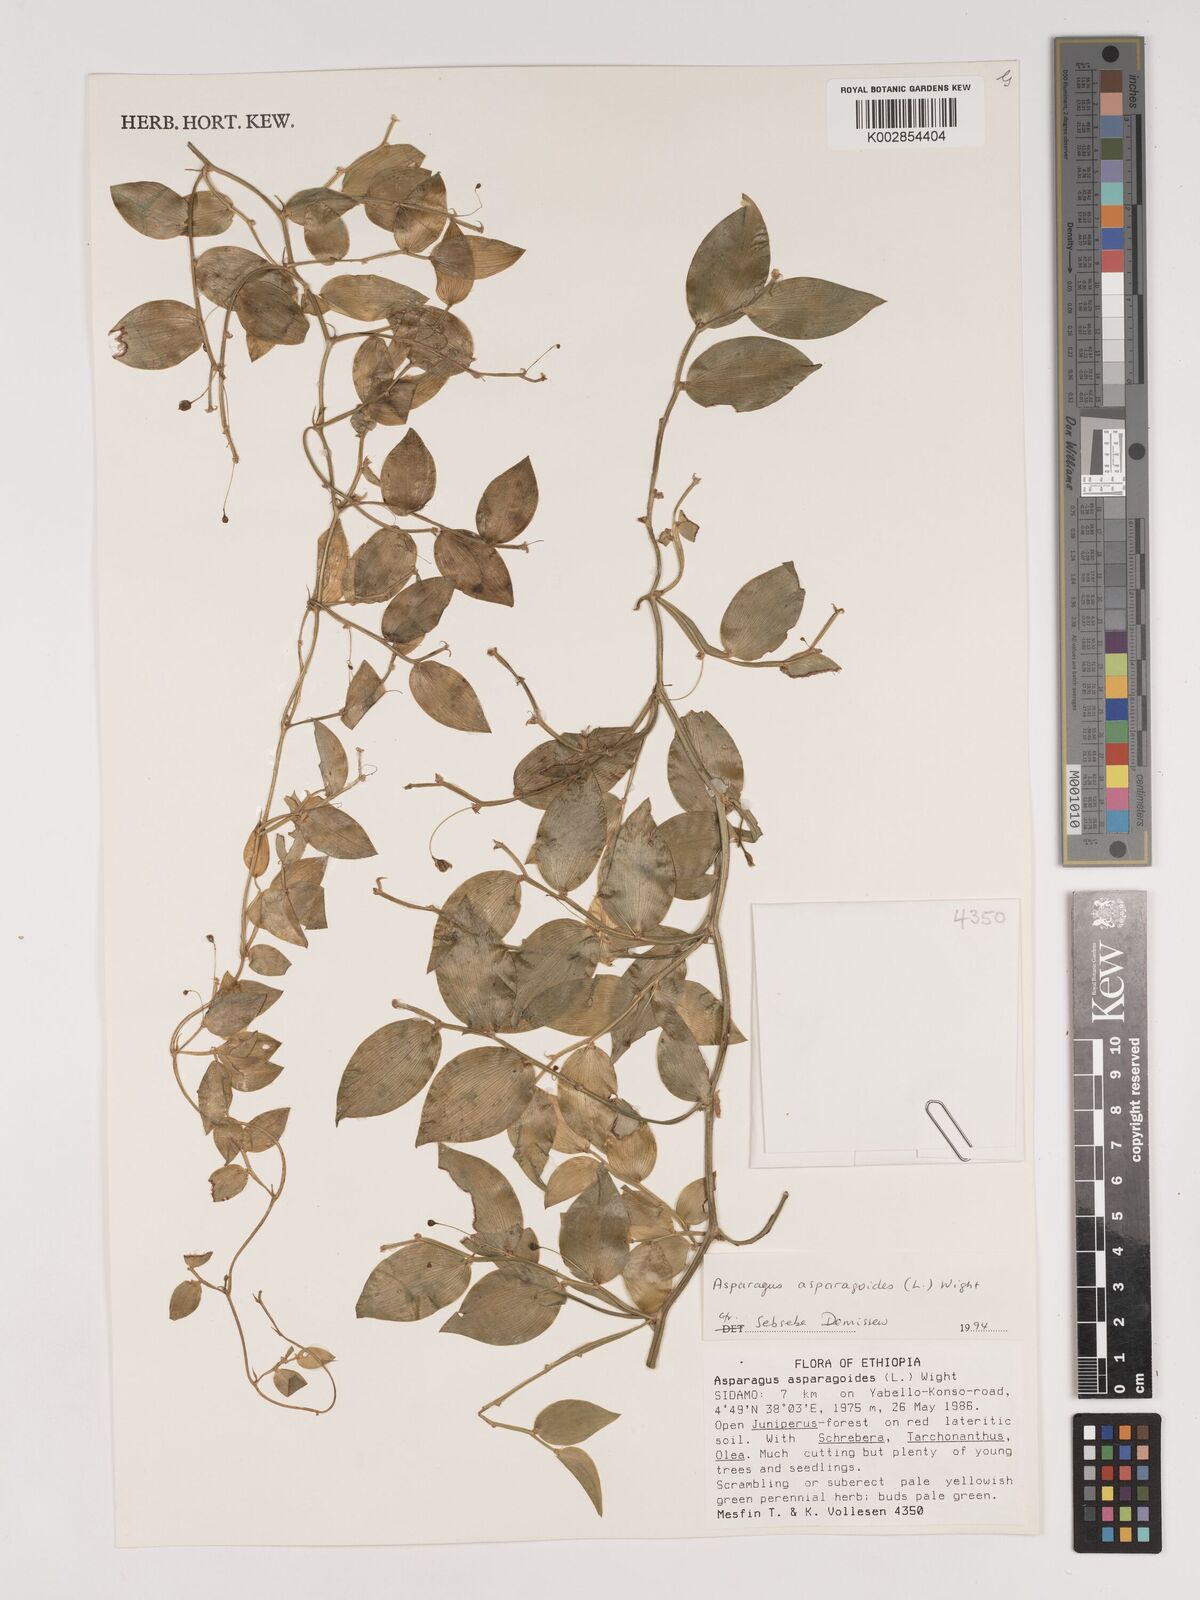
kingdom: Plantae
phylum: Tracheophyta
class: Liliopsida
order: Asparagales
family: Asparagaceae
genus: Asparagus
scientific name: Asparagus asparagoides
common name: African asparagus fern
